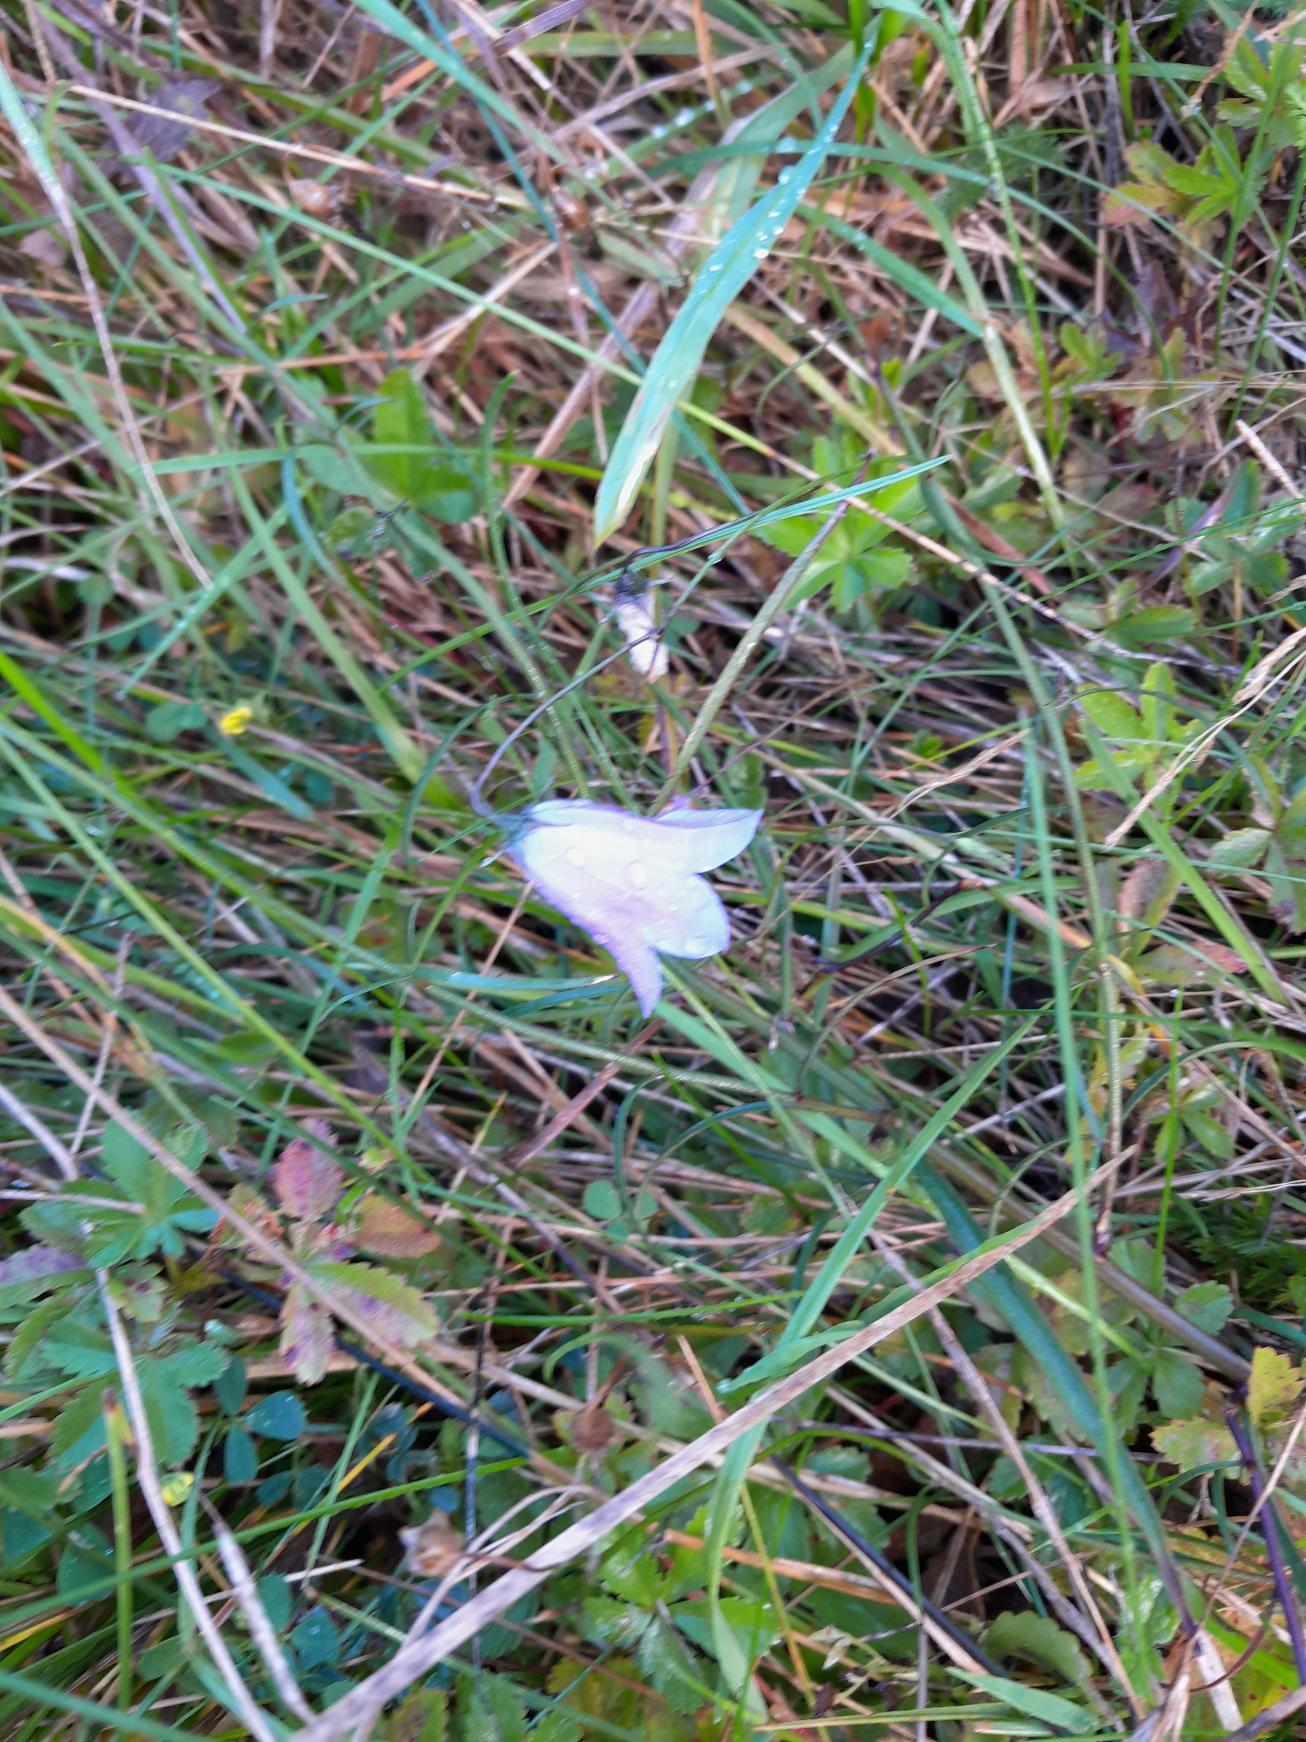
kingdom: Plantae
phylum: Tracheophyta
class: Magnoliopsida
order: Asterales
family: Campanulaceae
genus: Campanula
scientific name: Campanula rotundifolia
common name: Liden klokke
